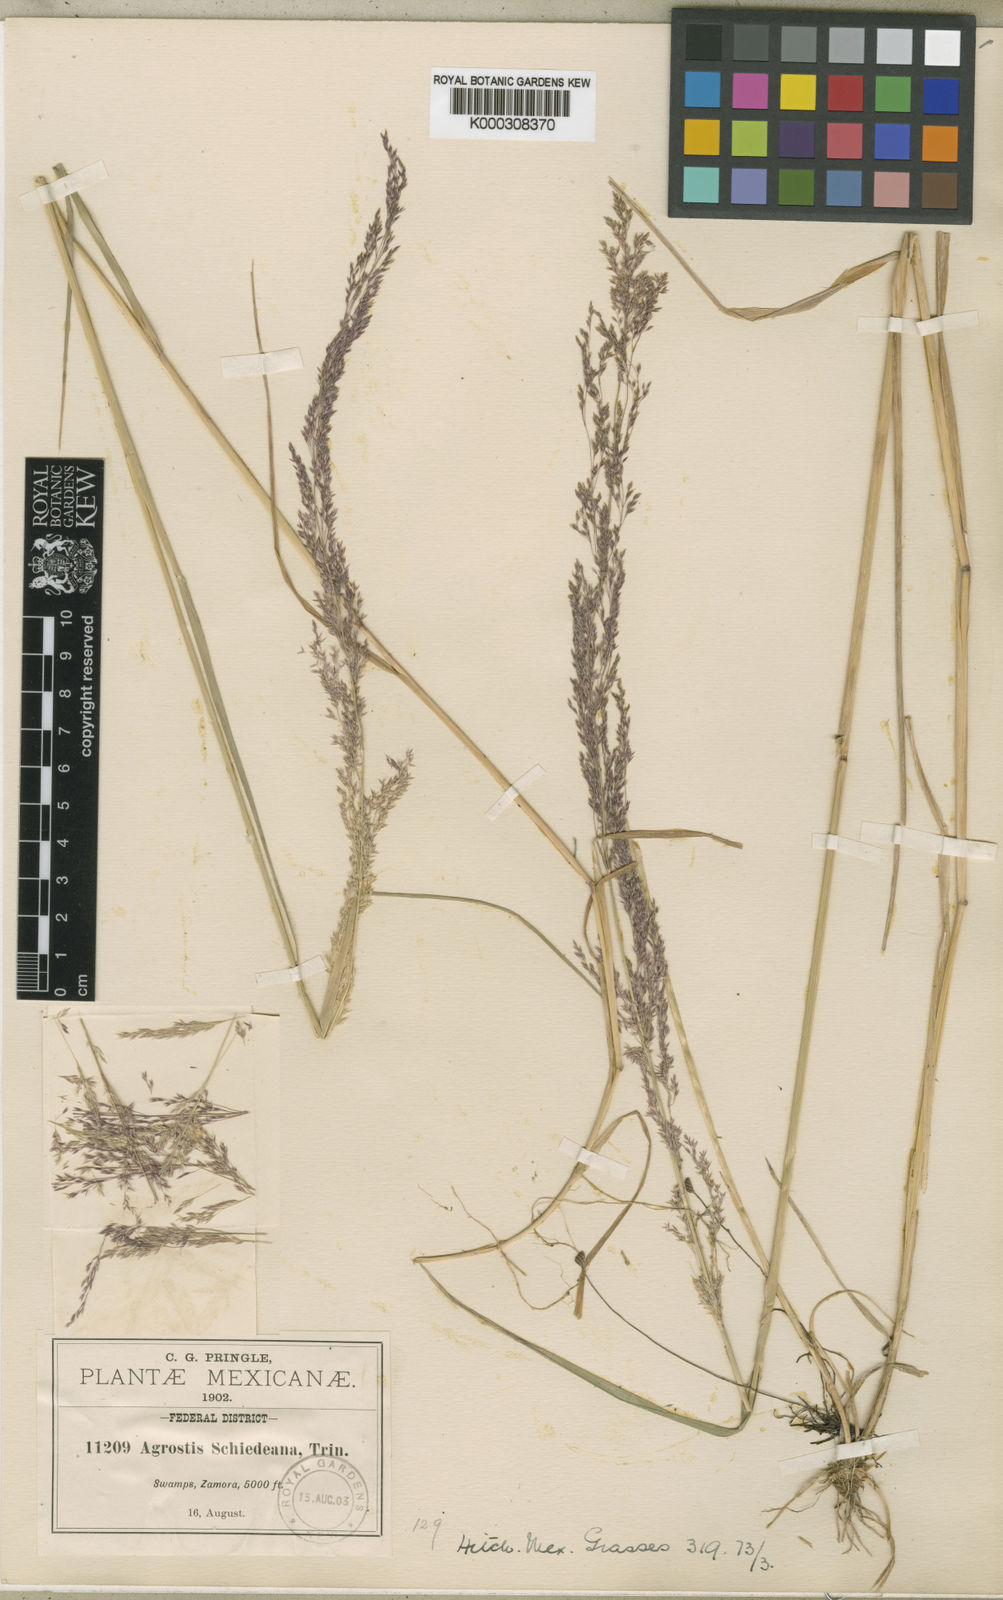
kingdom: Plantae
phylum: Tracheophyta
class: Liliopsida
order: Poales
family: Poaceae
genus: Agrostis
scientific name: Agrostis perennans
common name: Autumn bent
